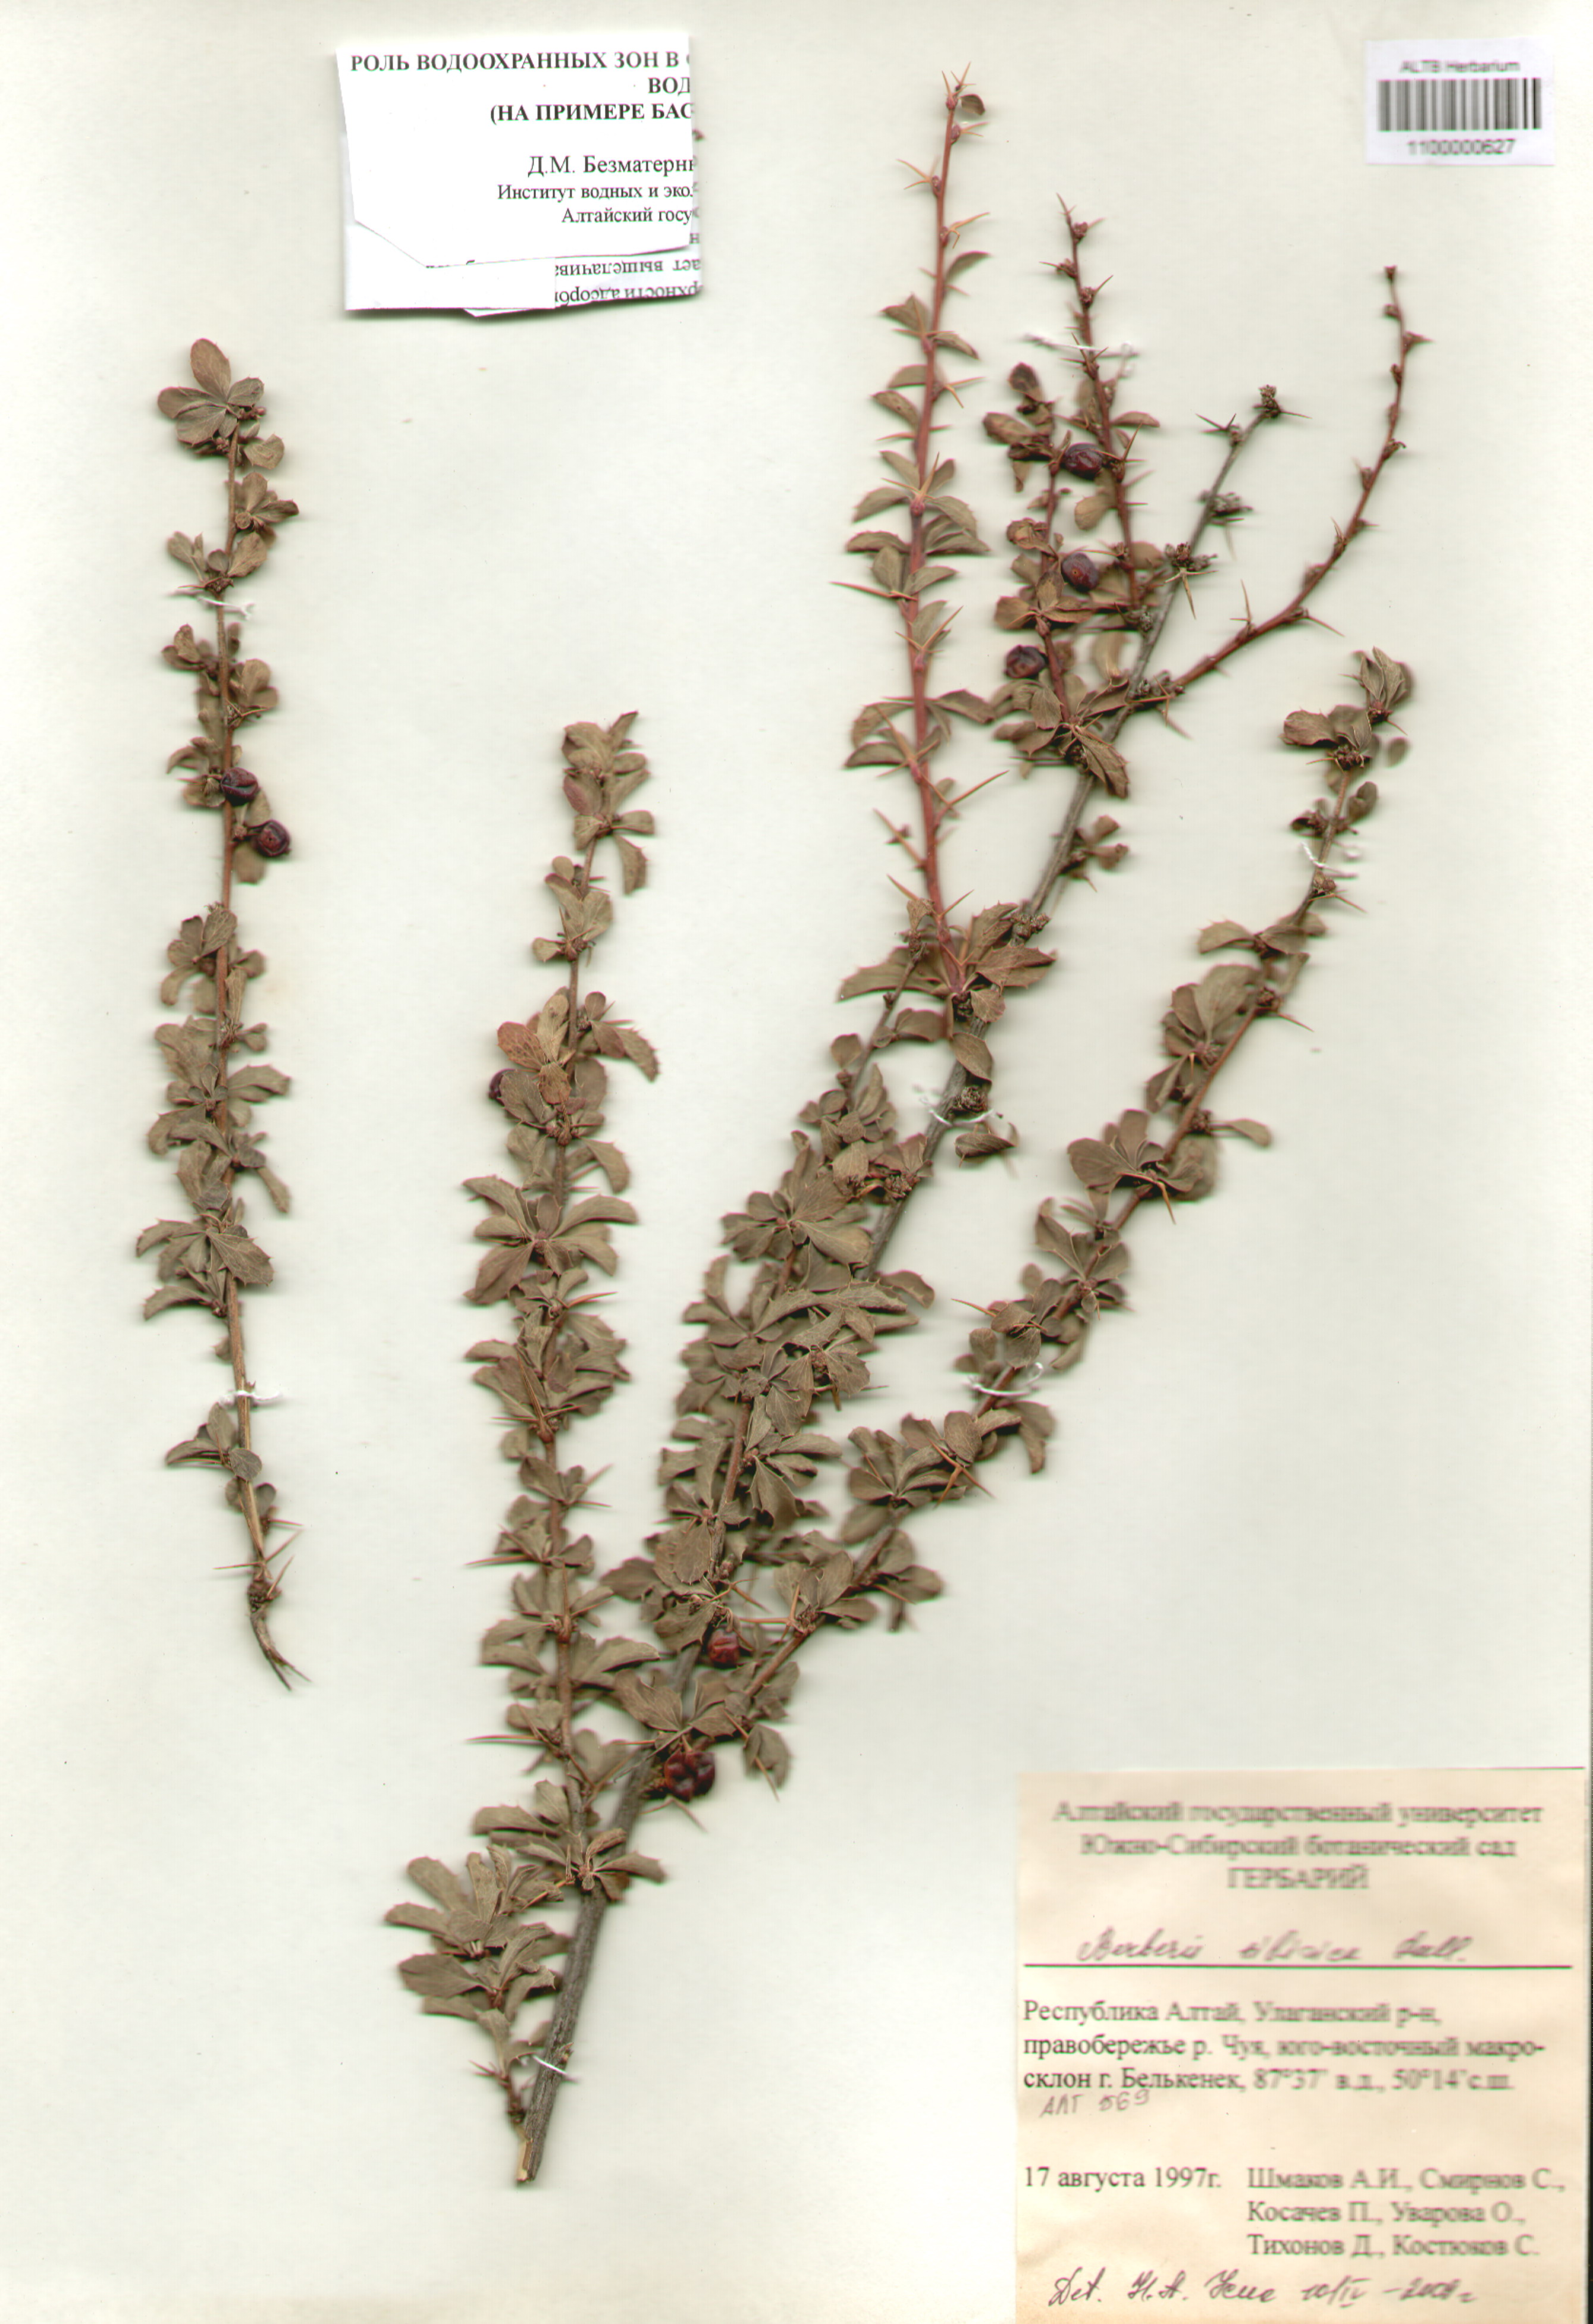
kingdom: Plantae
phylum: Tracheophyta
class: Magnoliopsida
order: Ranunculales
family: Berberidaceae
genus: Berberis
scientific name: Berberis sibirica
